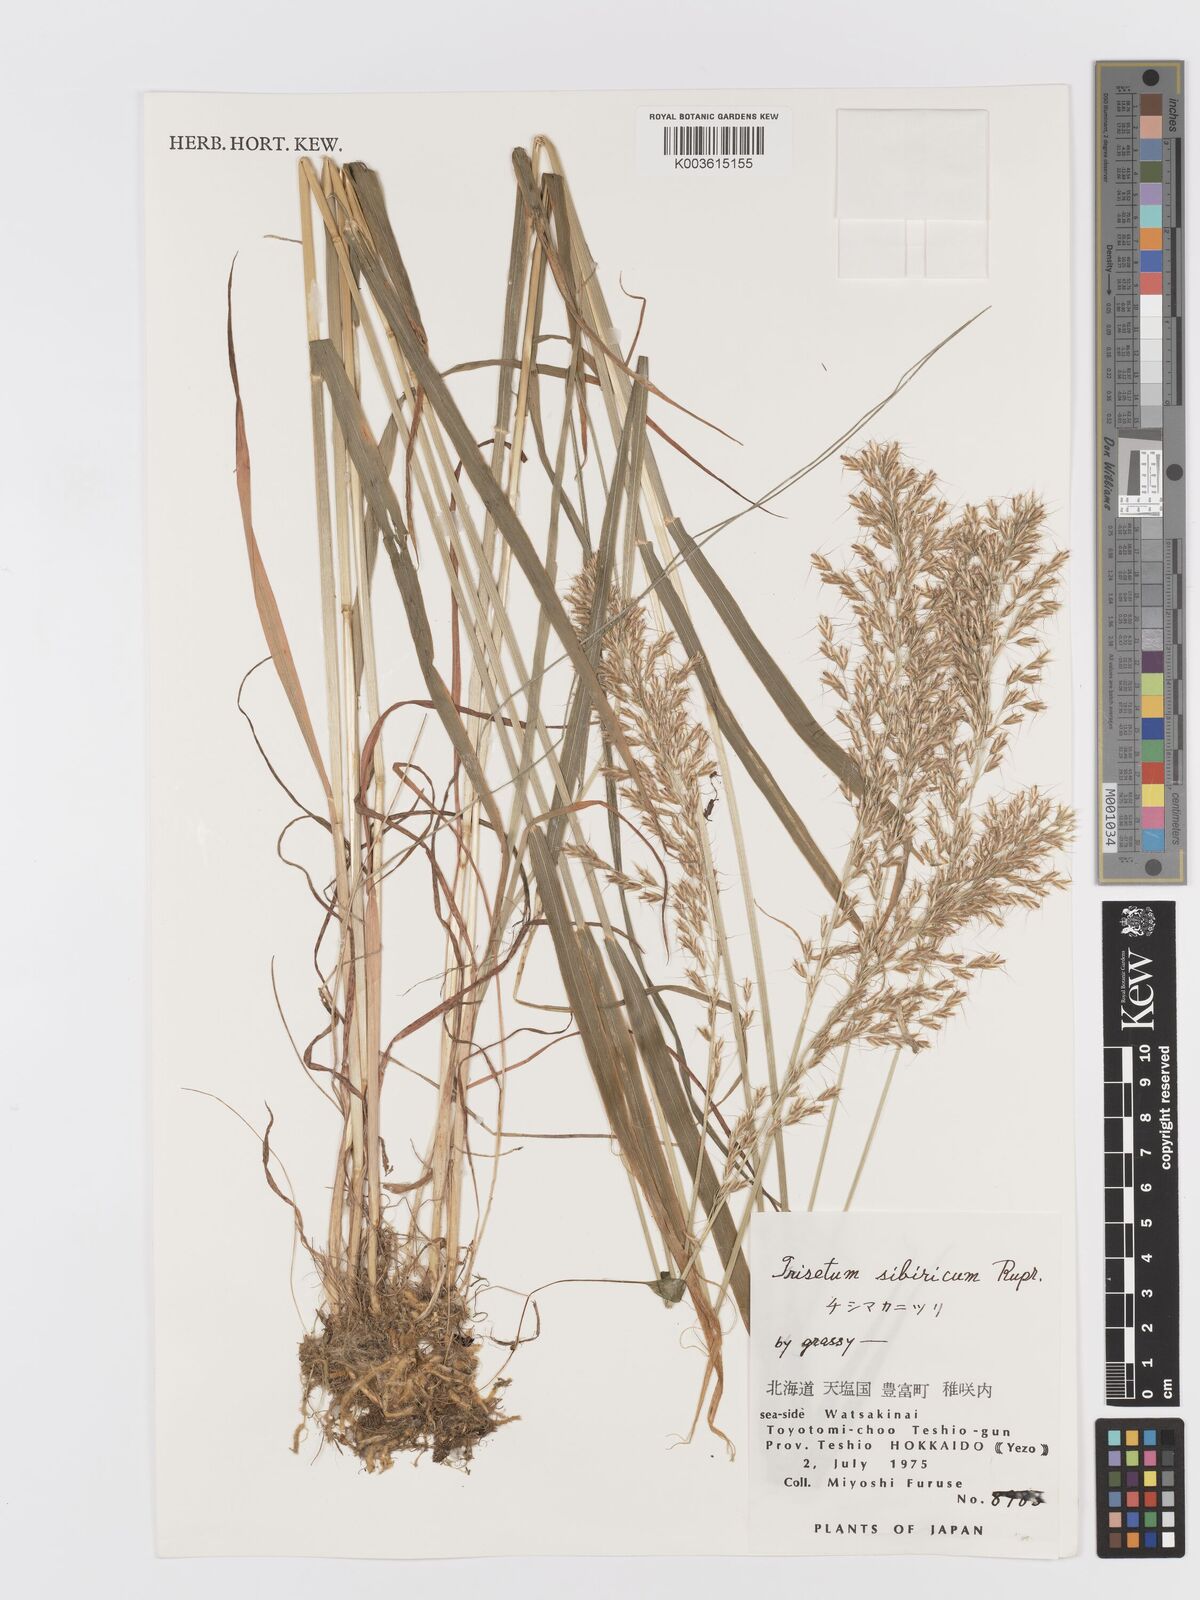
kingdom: Plantae
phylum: Tracheophyta
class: Liliopsida
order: Poales
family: Poaceae
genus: Sibirotrisetum
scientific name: Sibirotrisetum sibiricum
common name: Siberian false oat
